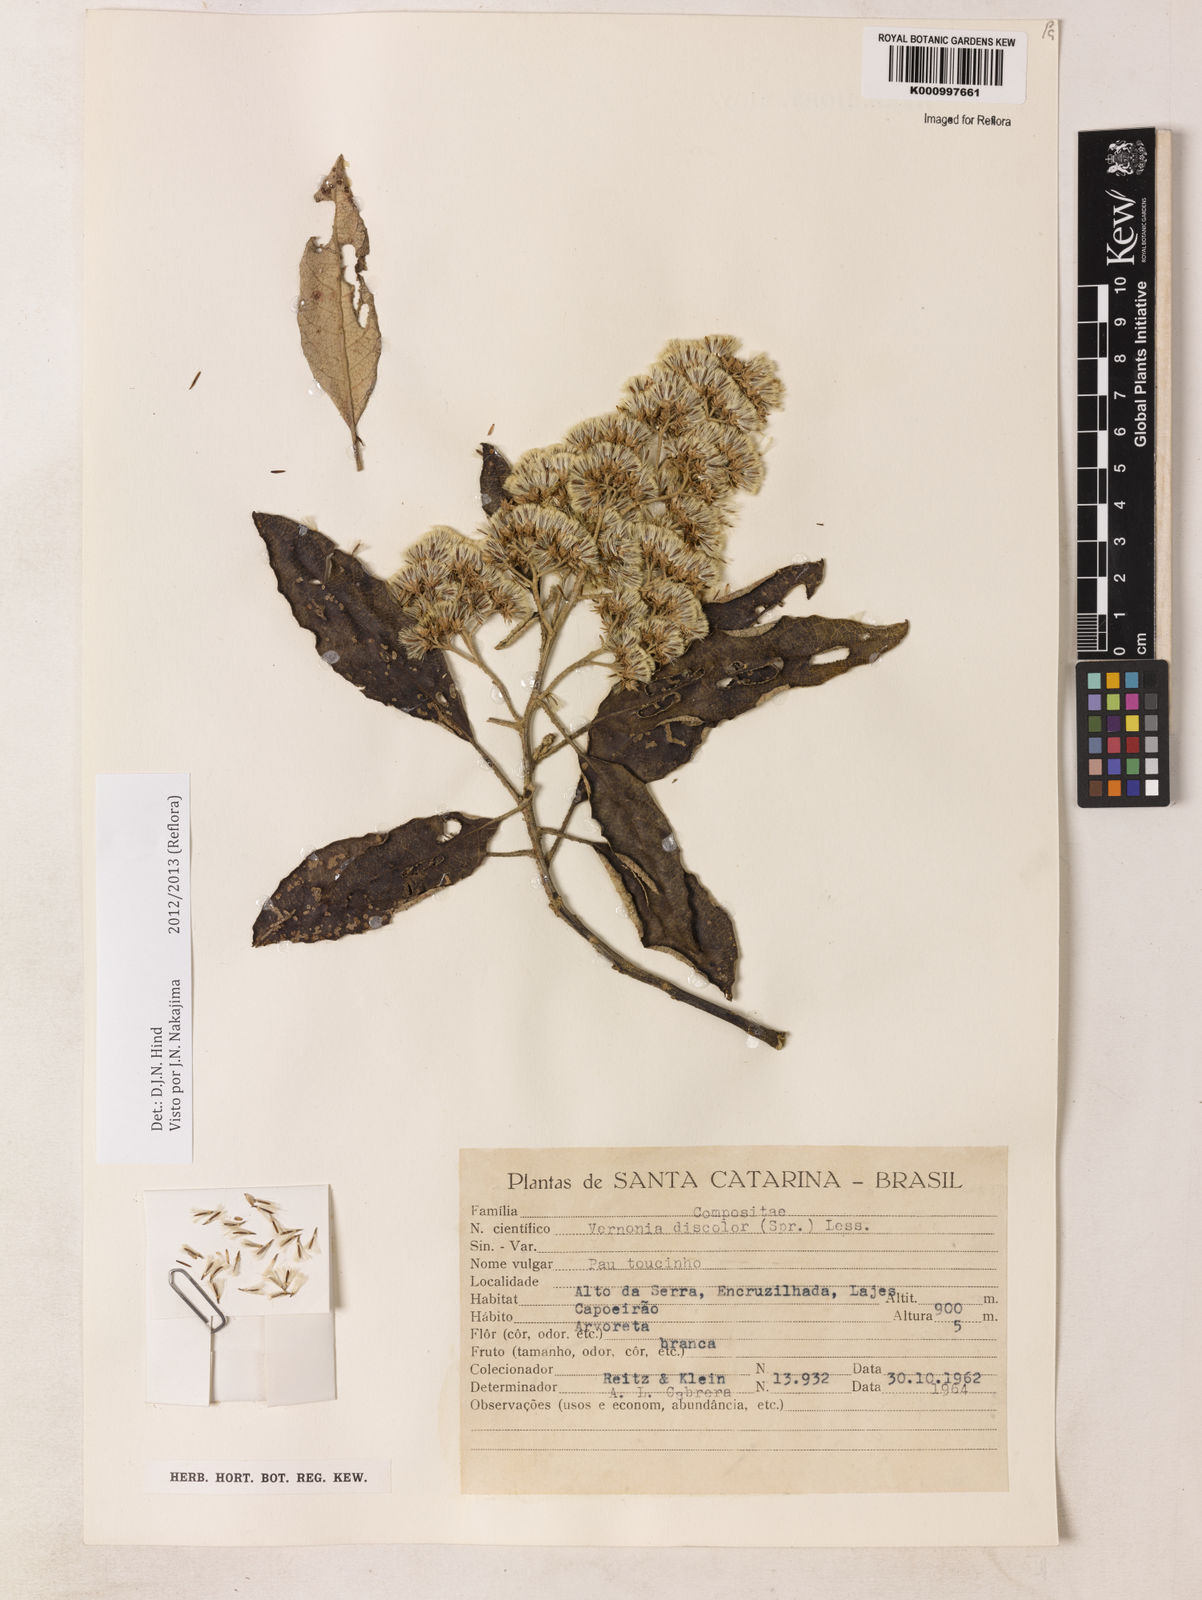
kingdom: Plantae
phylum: Tracheophyta
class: Magnoliopsida
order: Asterales
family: Asteraceae
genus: Vernonanthura
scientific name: Vernonanthura discolor
